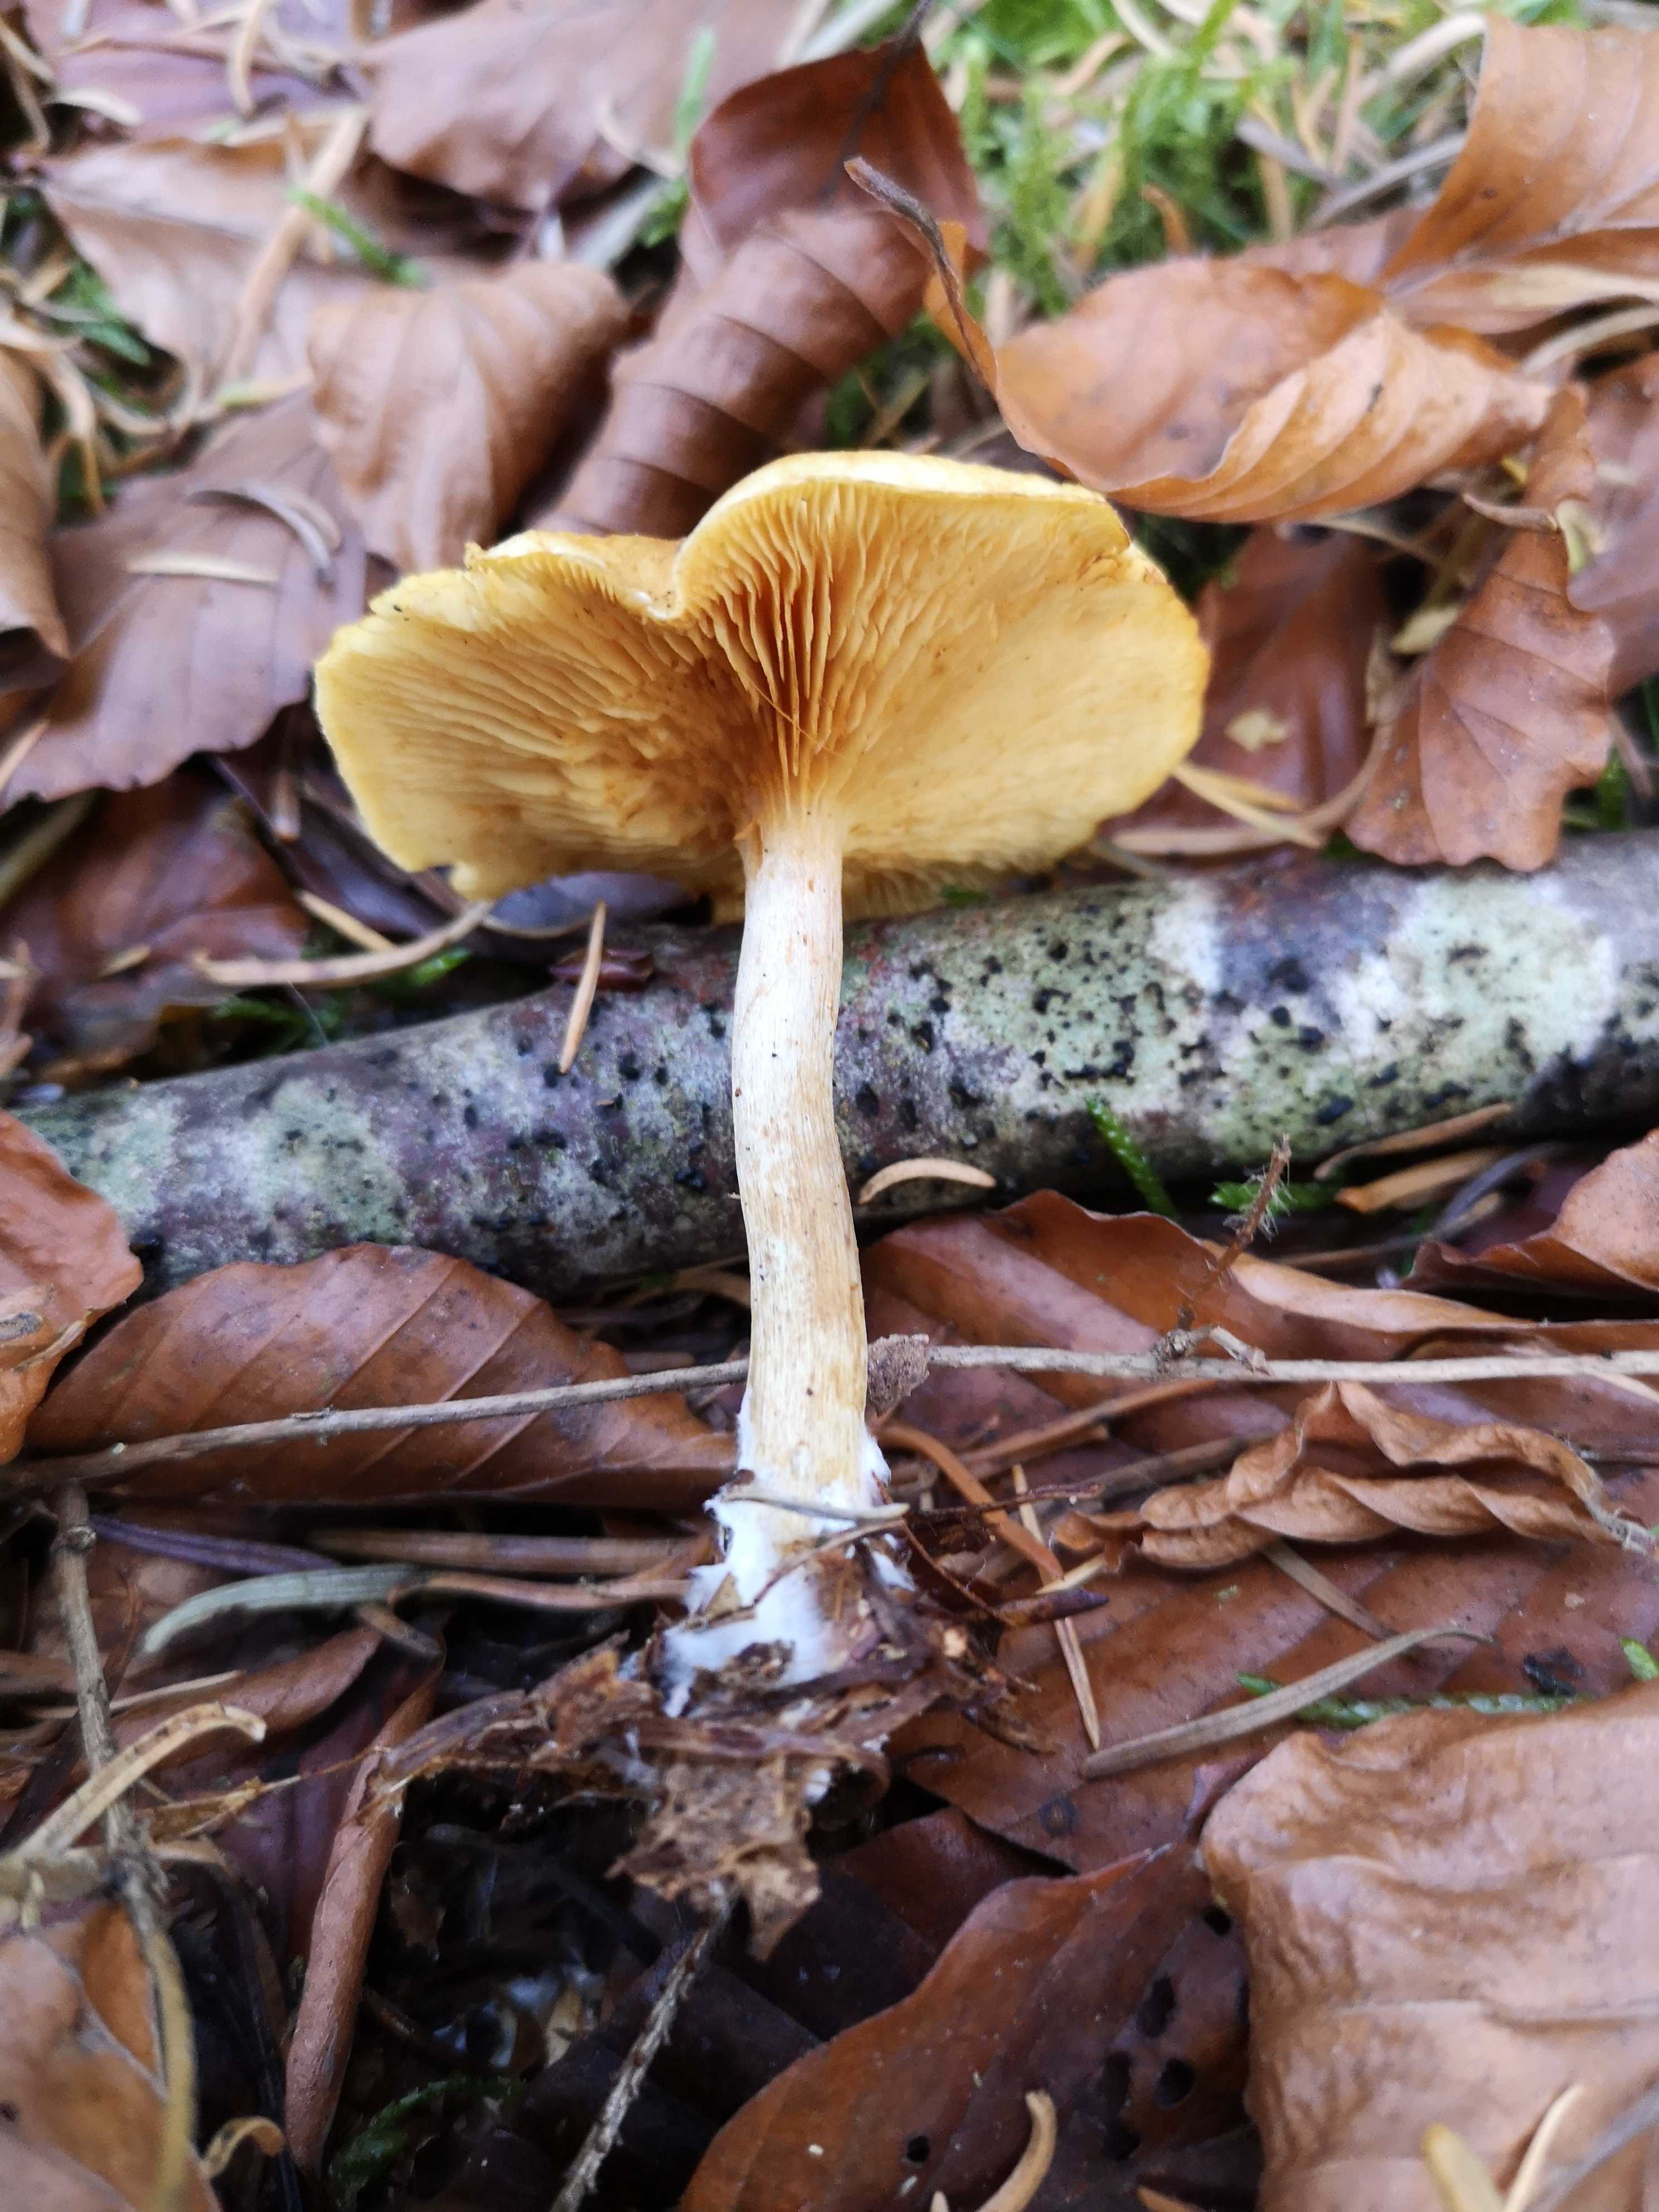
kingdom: Fungi
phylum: Basidiomycota
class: Agaricomycetes
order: Agaricales
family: Hymenogastraceae
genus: Gymnopilus
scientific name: Gymnopilus penetrans
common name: plettet flammehat
